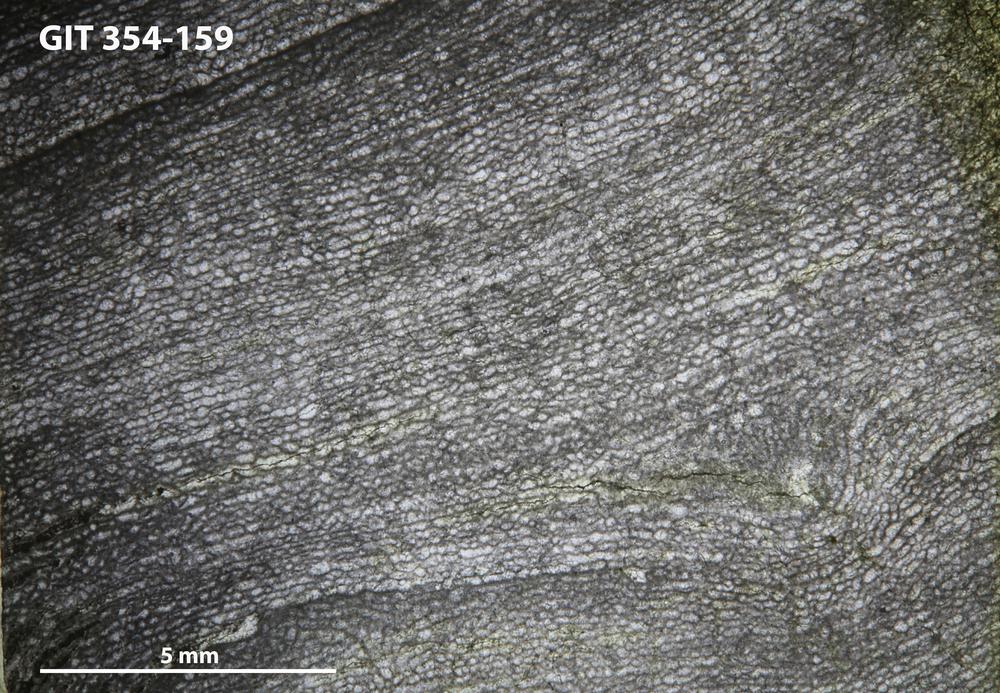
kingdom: Animalia
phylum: Porifera
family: Clathrodictyidae
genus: Clathrodictyon
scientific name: Clathrodictyon sulevi
